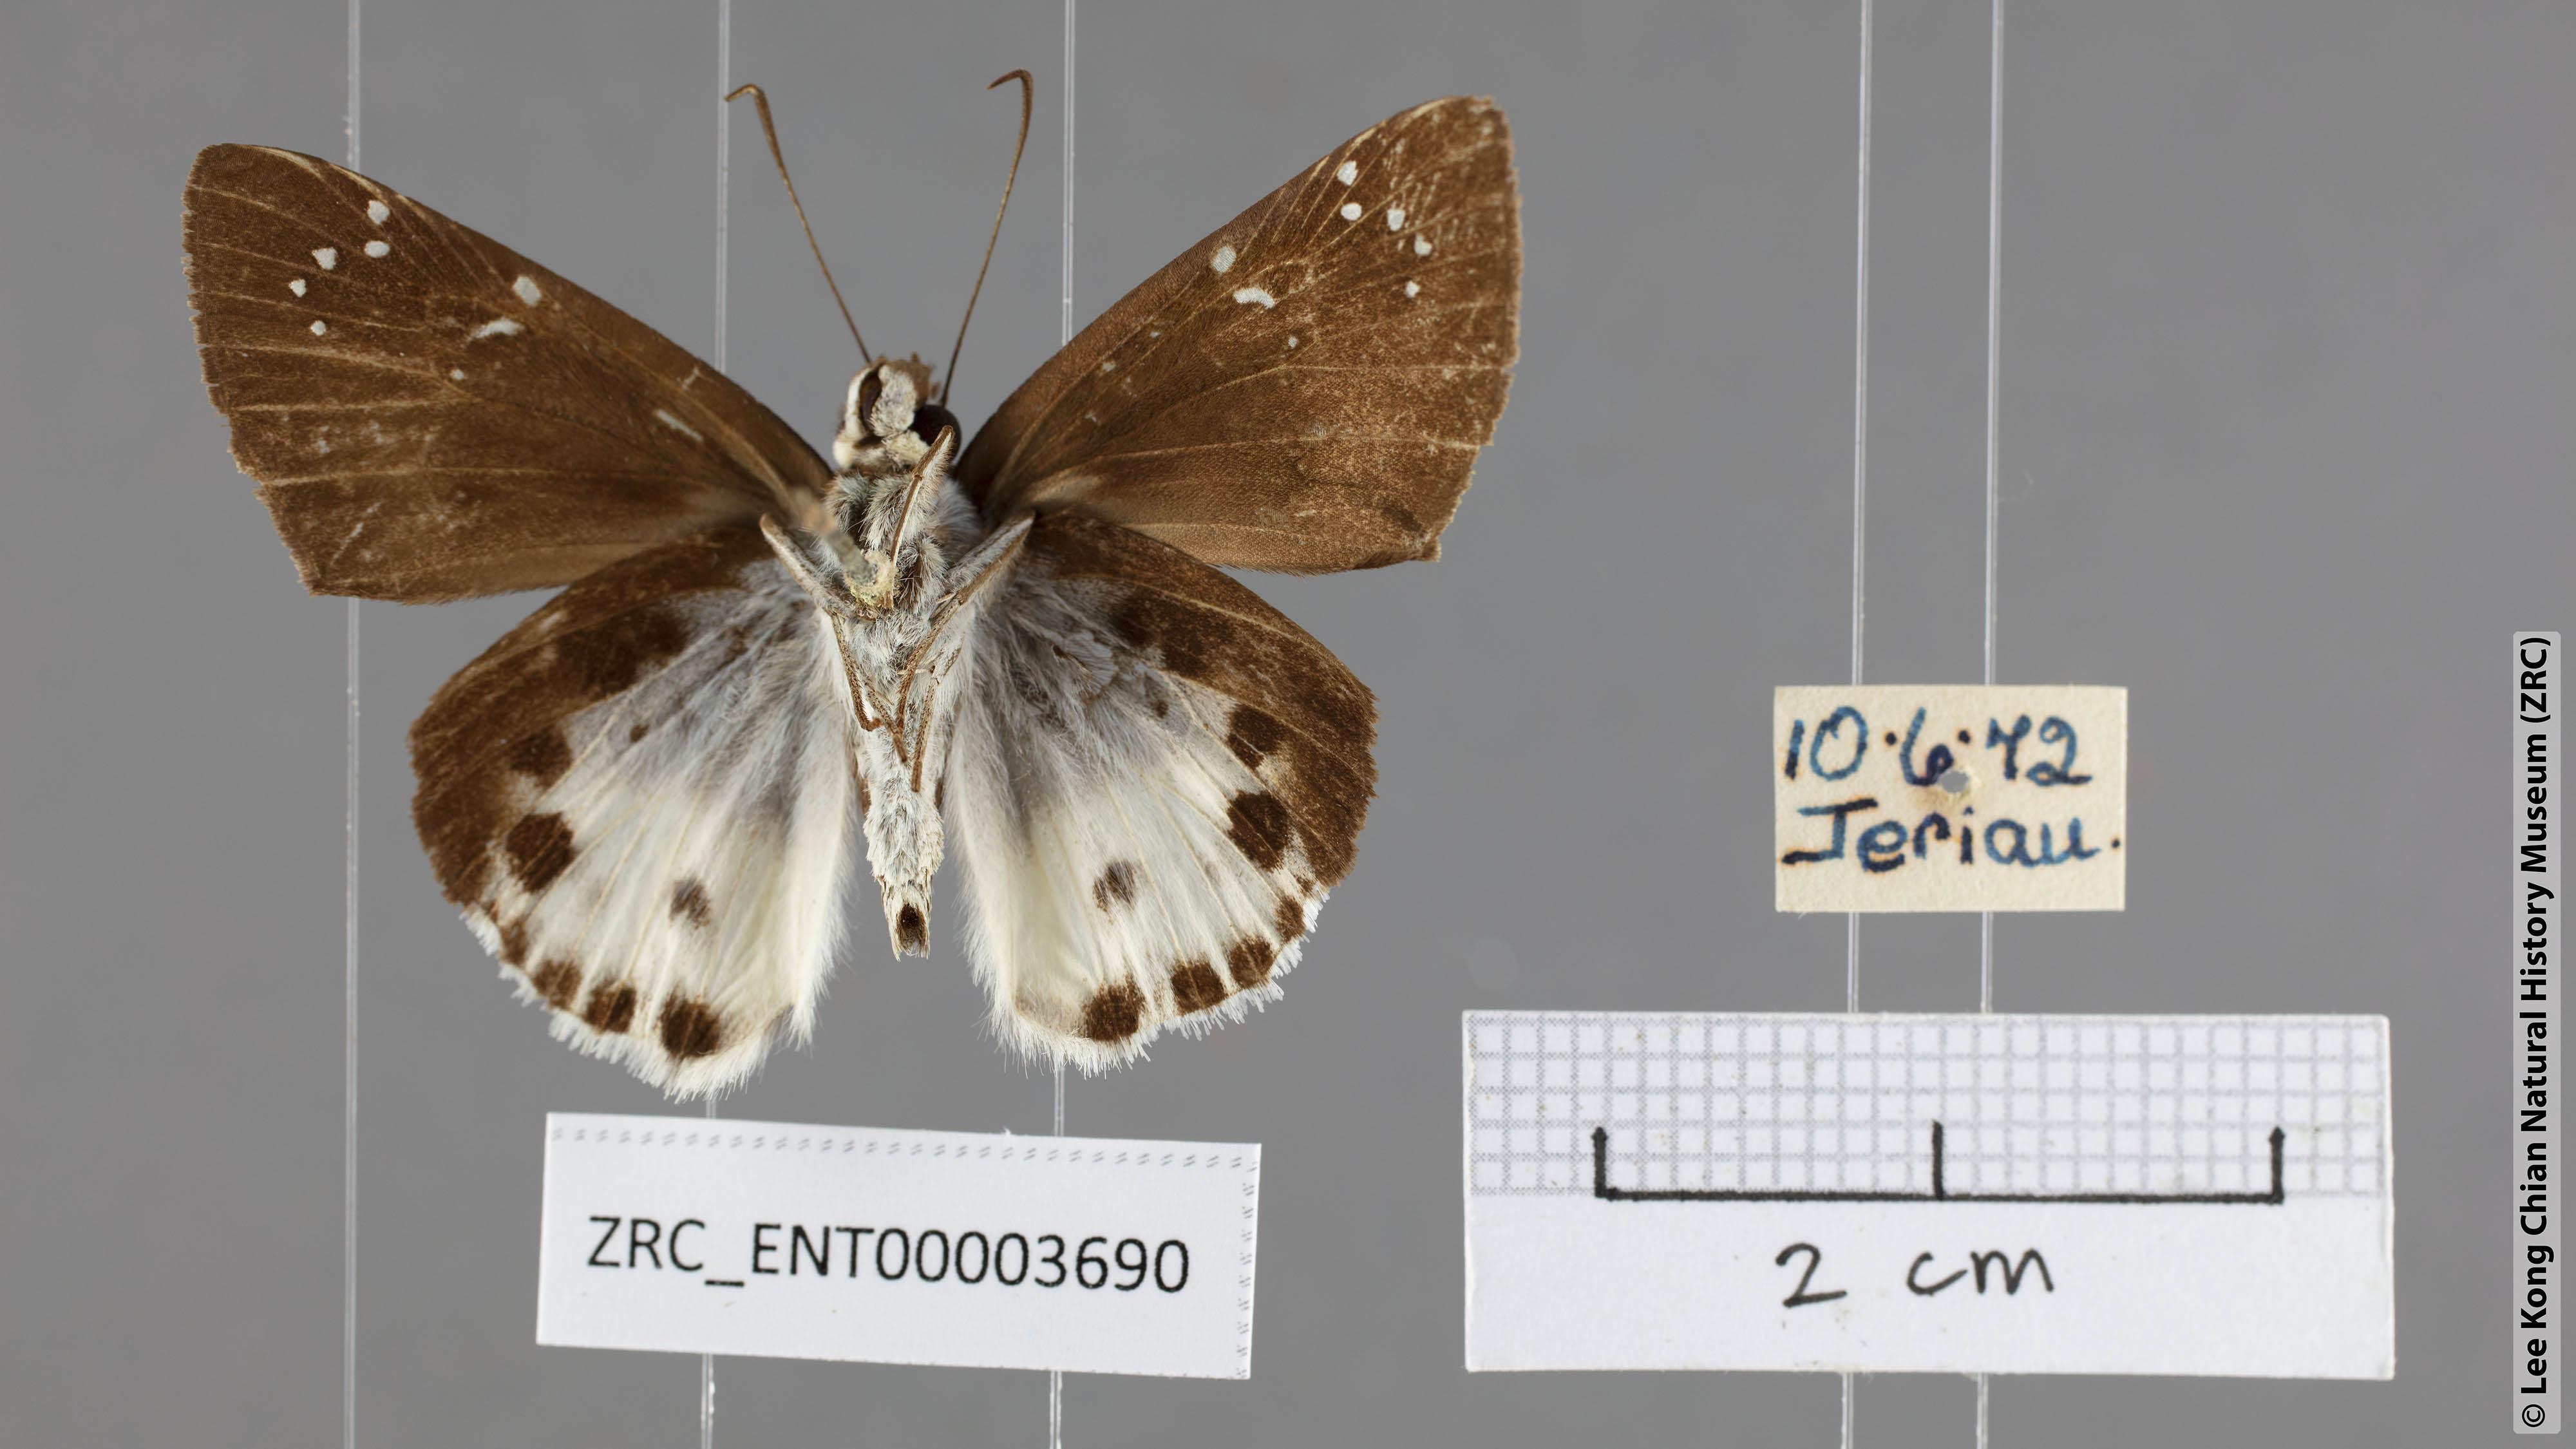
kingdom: Animalia
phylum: Arthropoda
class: Insecta
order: Lepidoptera
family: Hesperiidae
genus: Tagiades
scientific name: Tagiades cohaerens
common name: White-striped snow flat
